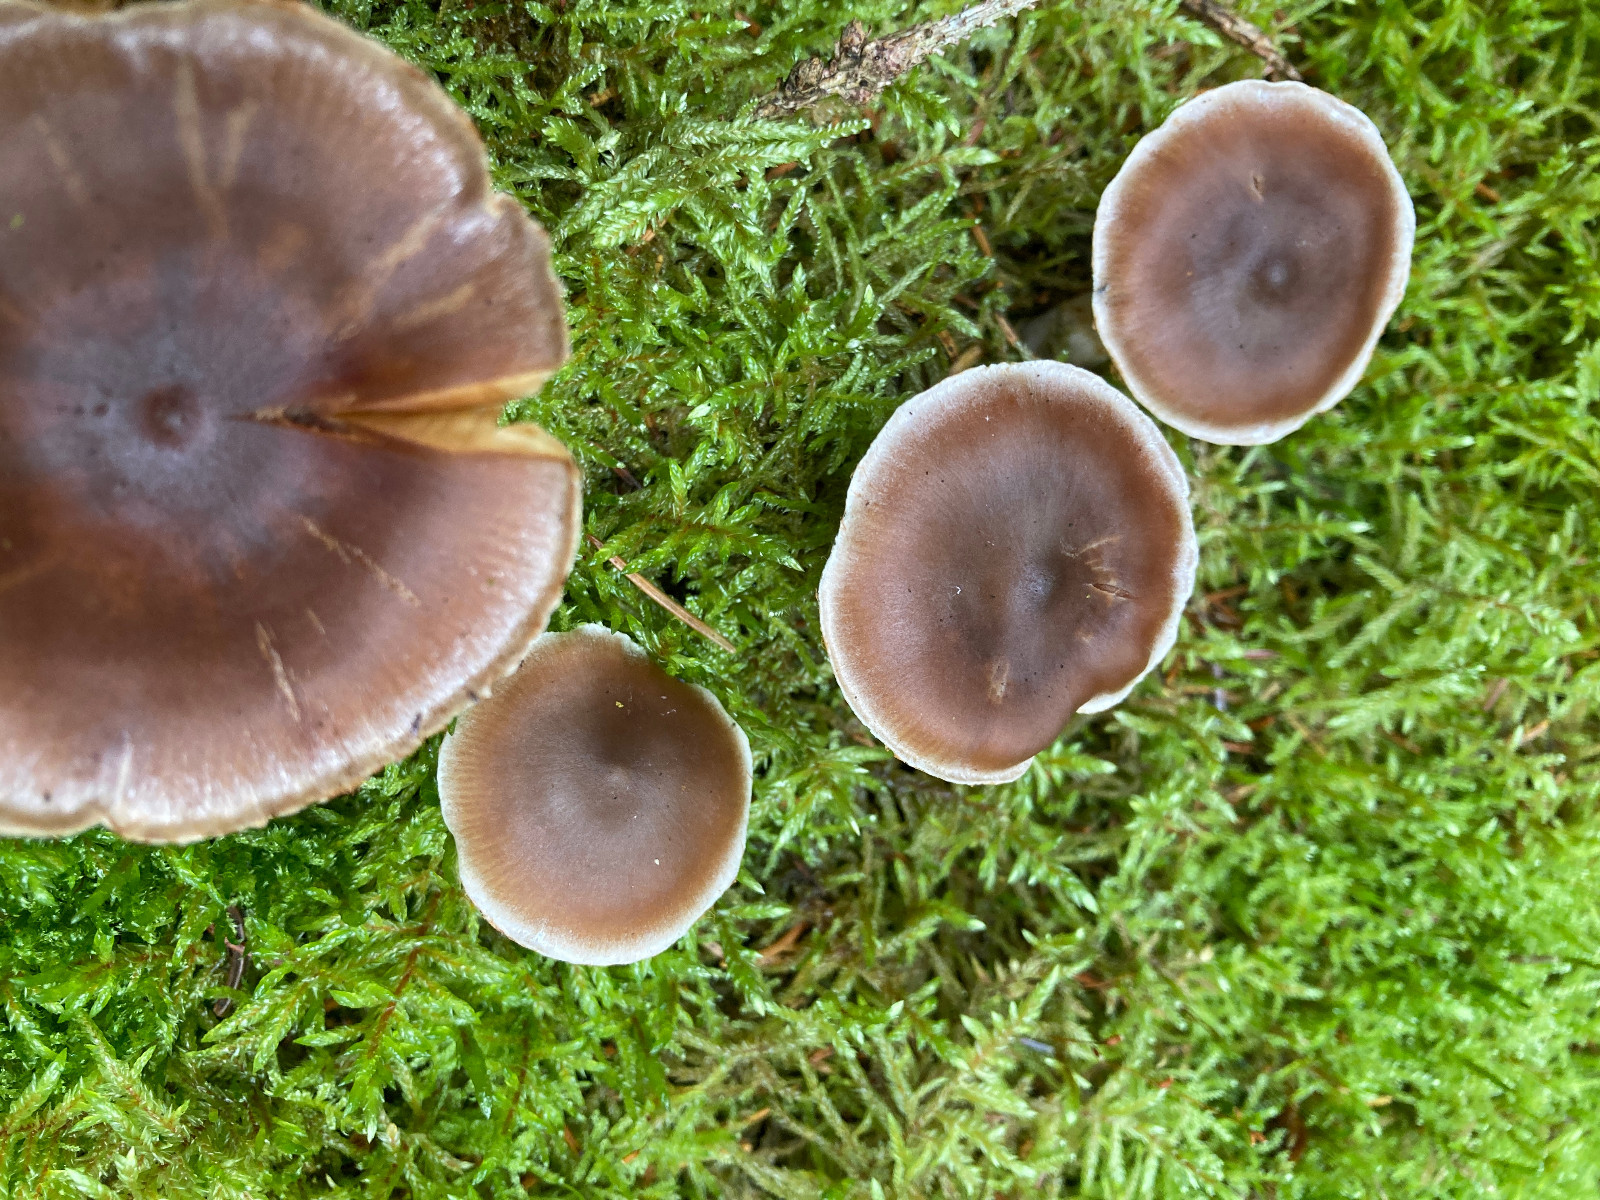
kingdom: Fungi
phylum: Basidiomycota
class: Agaricomycetes
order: Agaricales
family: Cortinariaceae
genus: Cortinarius
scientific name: Cortinarius
